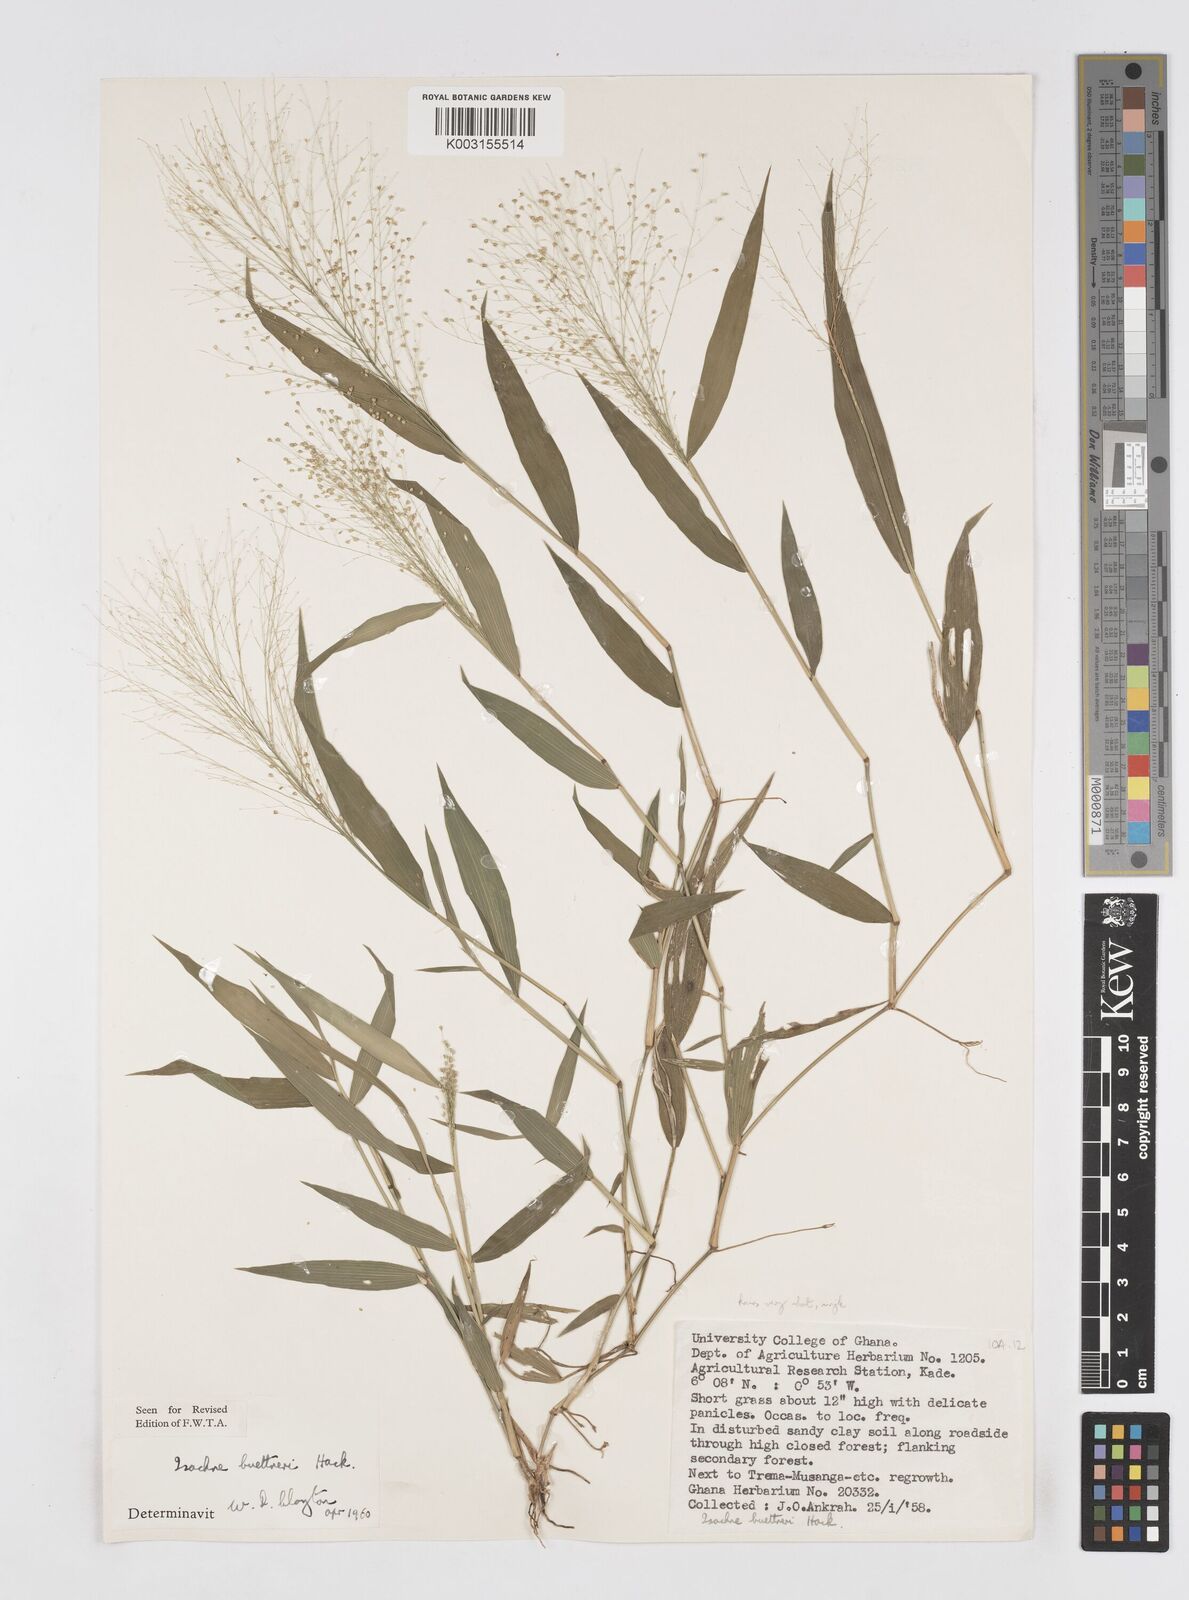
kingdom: Plantae
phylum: Tracheophyta
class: Liliopsida
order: Poales
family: Poaceae
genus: Isachne
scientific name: Isachne albens
